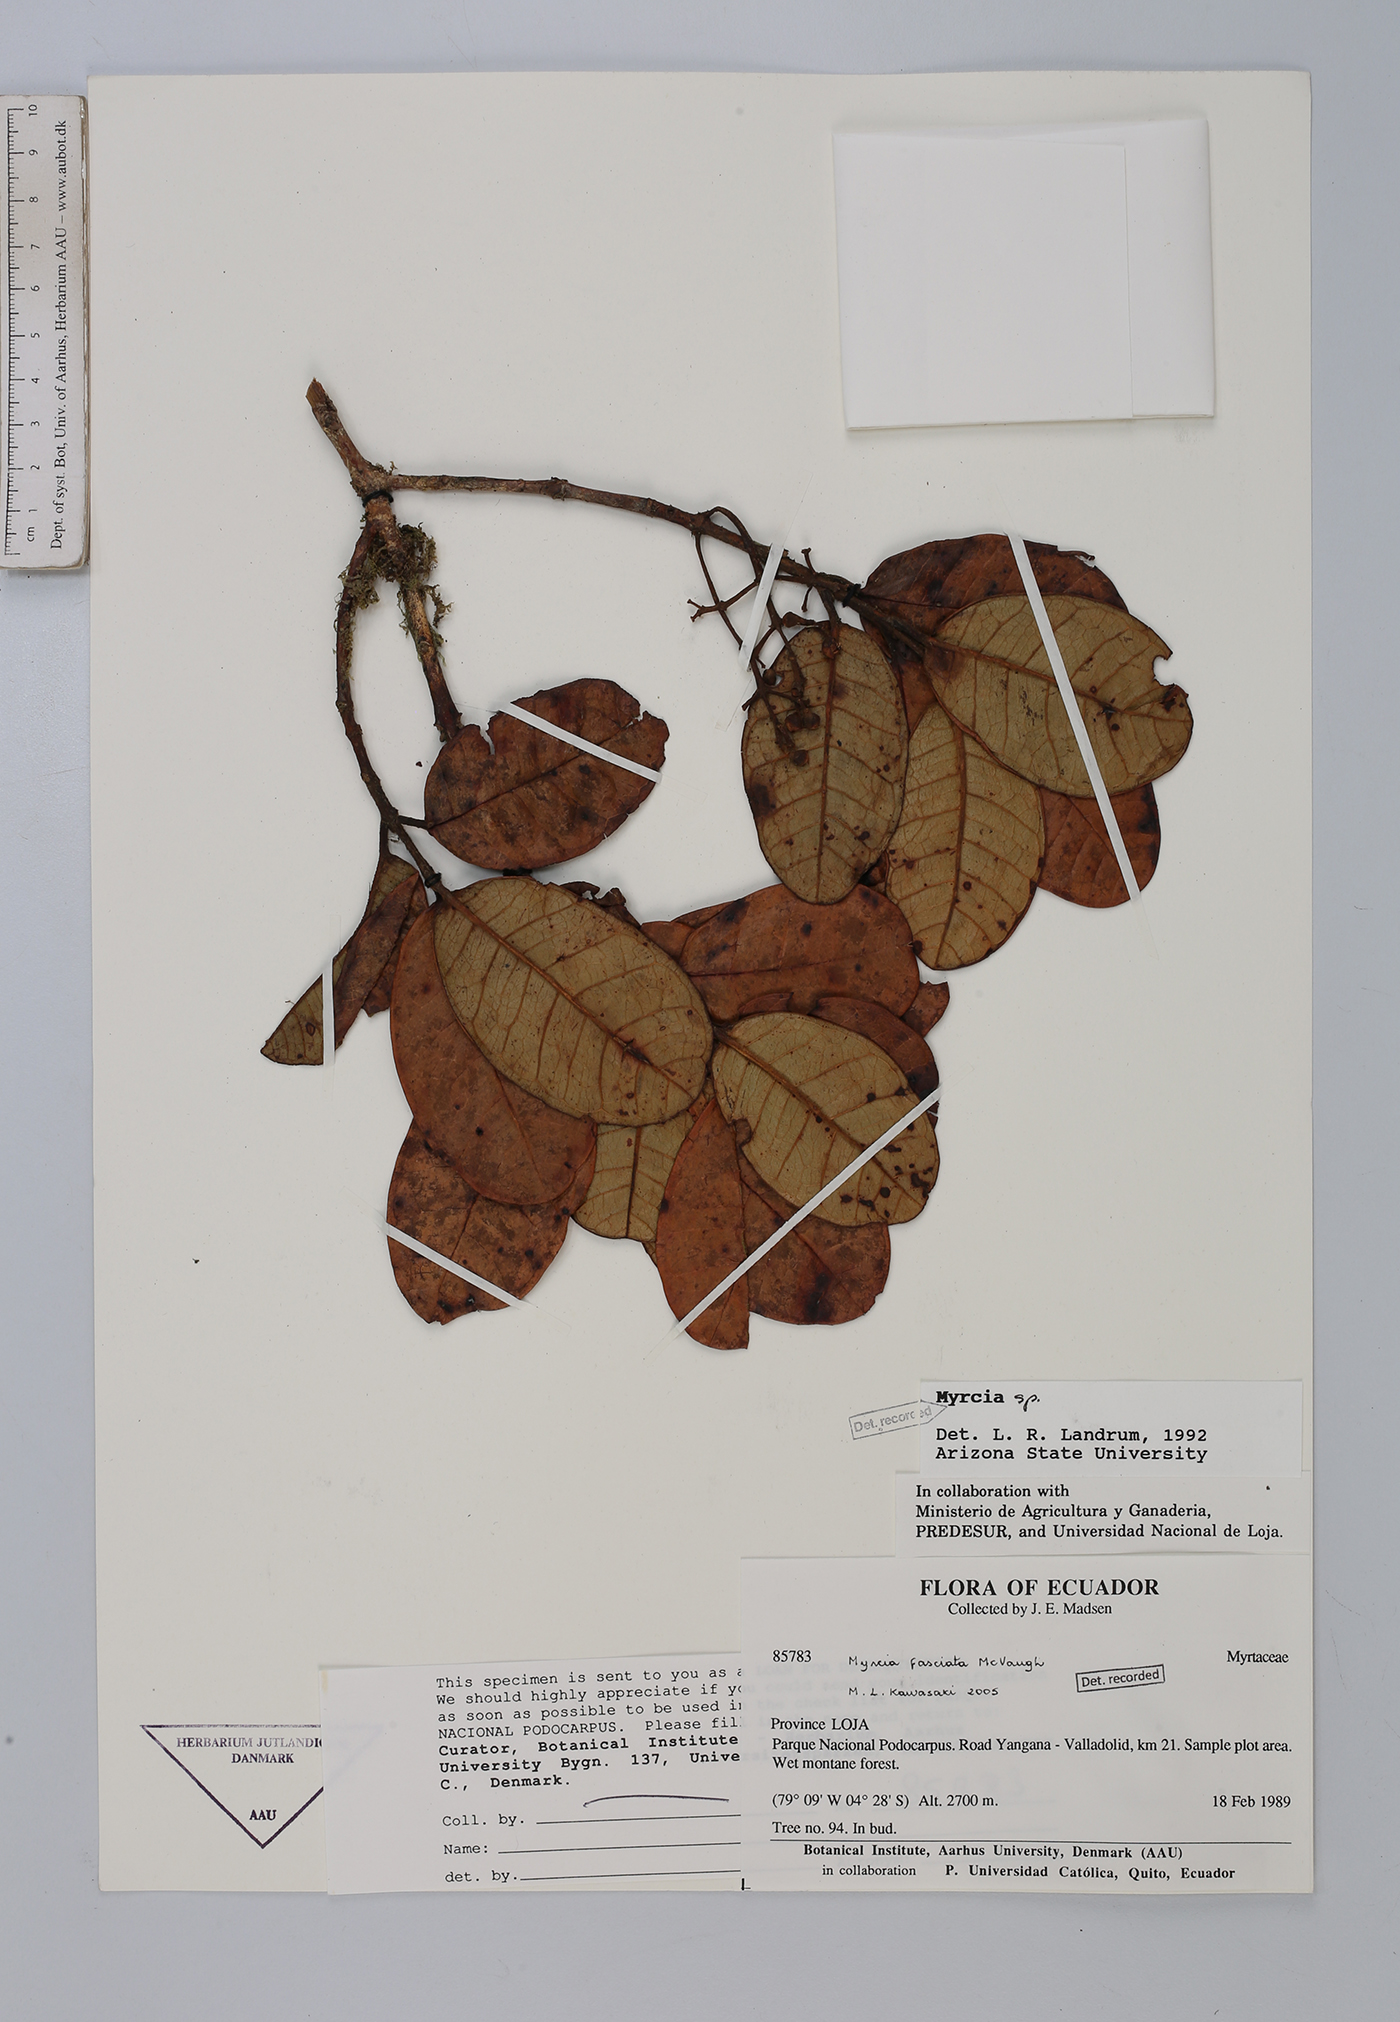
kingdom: Plantae
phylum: Tracheophyta
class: Magnoliopsida
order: Myrtales
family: Myrtaceae
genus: Myrcia
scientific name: Myrcia fasciata
